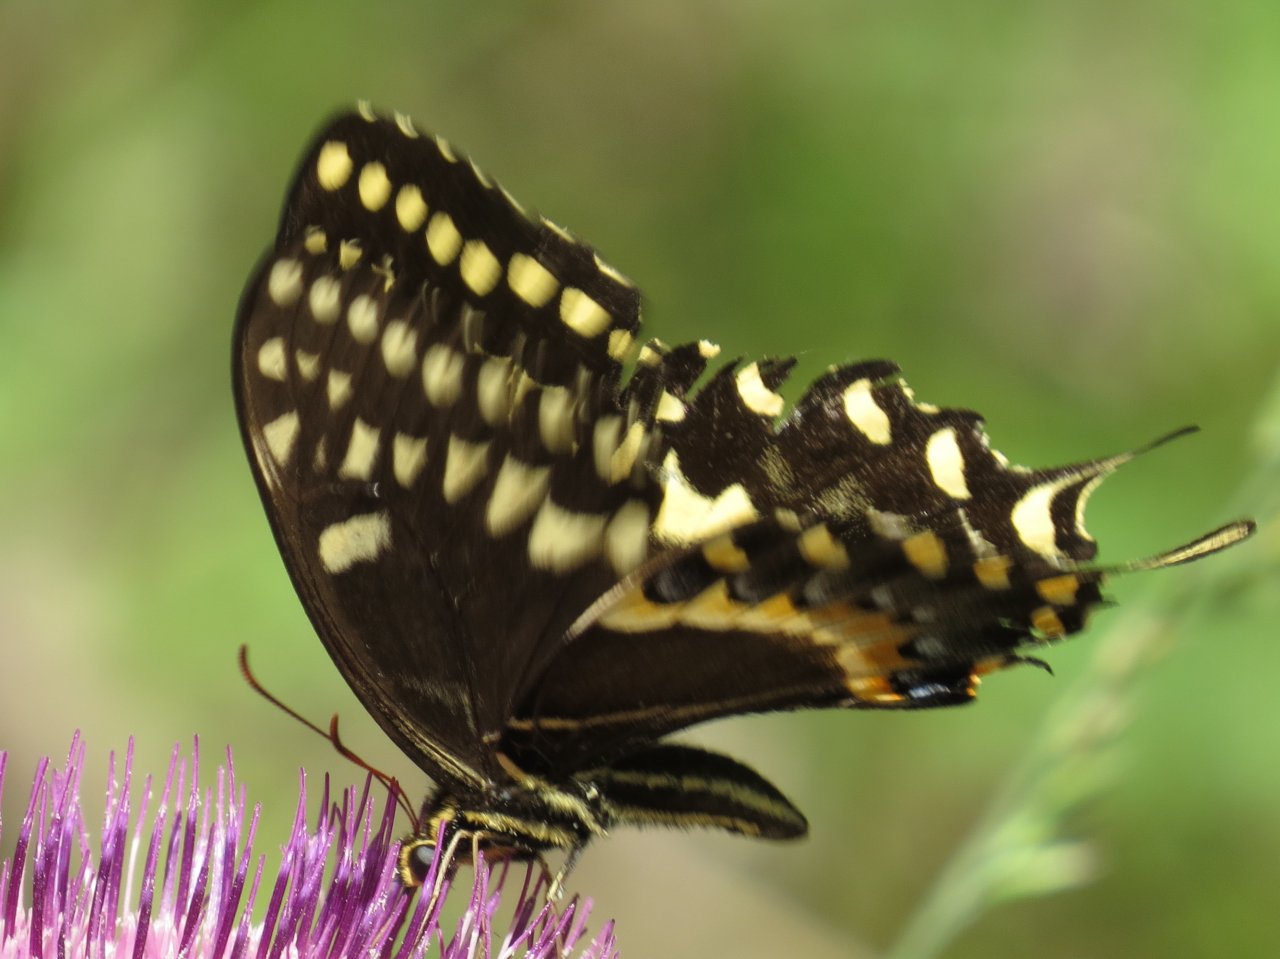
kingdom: Animalia
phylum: Arthropoda
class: Insecta
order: Lepidoptera
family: Papilionidae
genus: Pterourus
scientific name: Pterourus palamedes
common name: Palamedes Swallowtail
